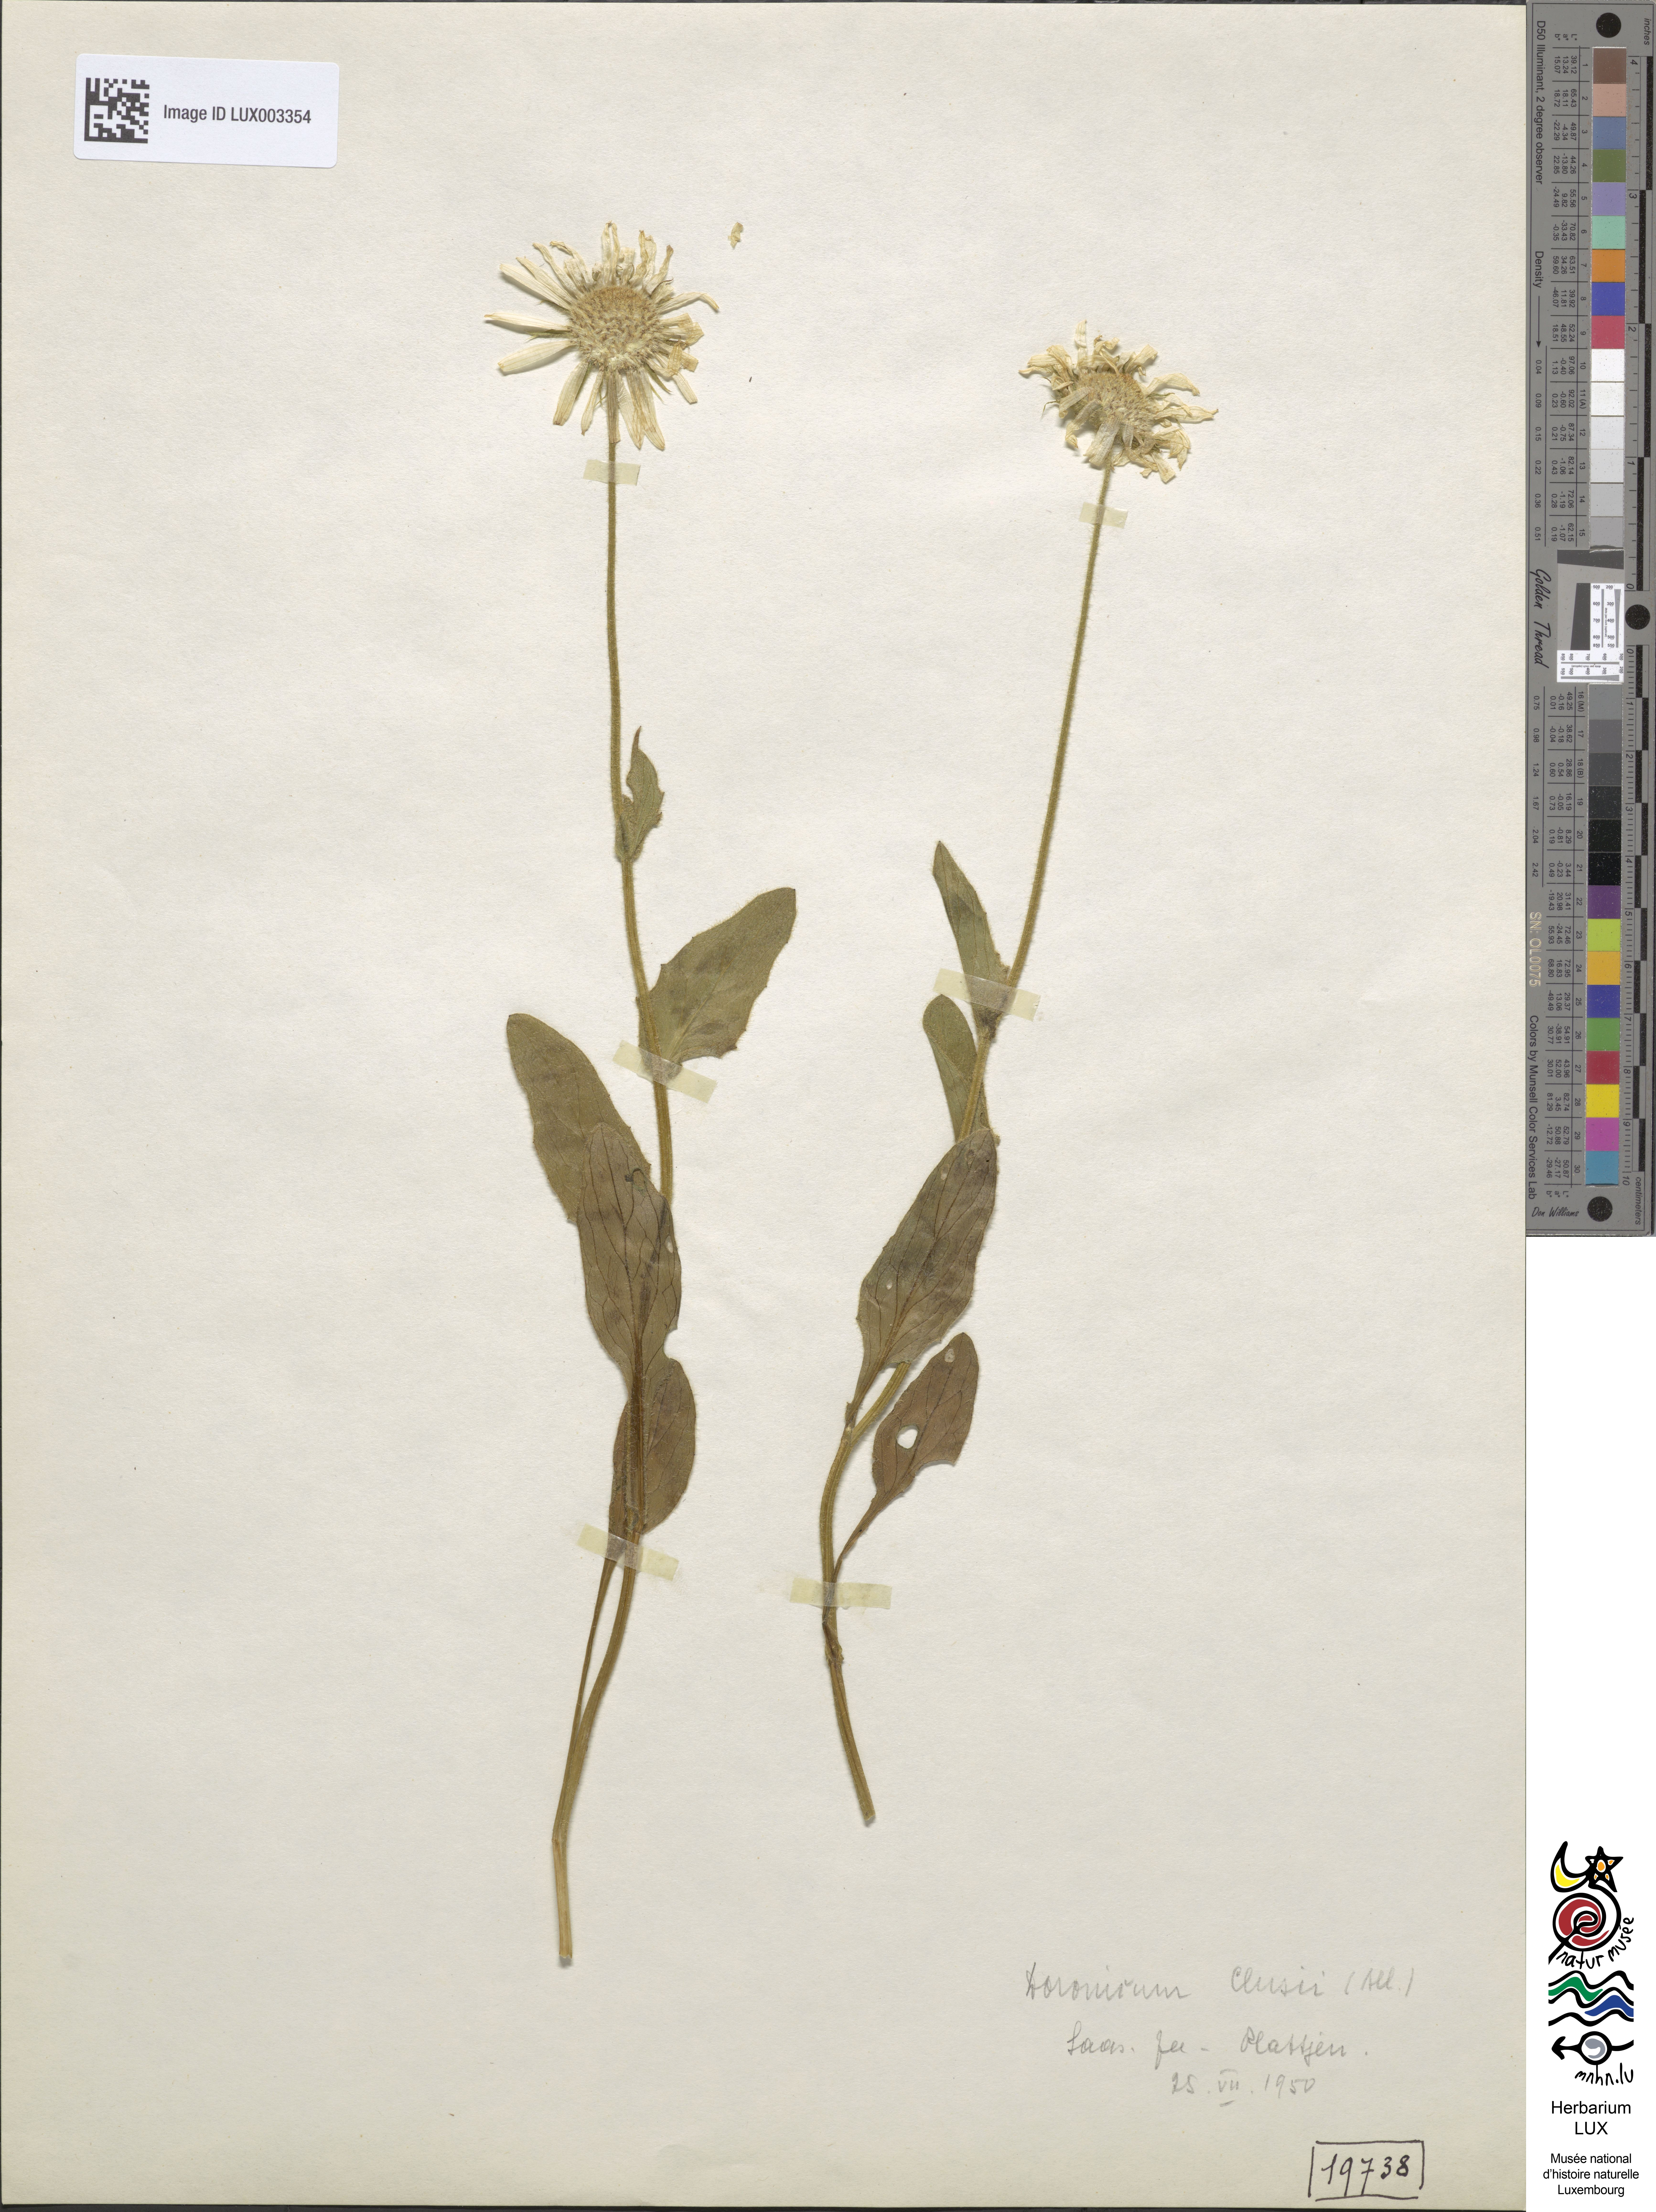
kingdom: Plantae
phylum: Tracheophyta
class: Magnoliopsida
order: Asterales
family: Asteraceae
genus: Doronicum
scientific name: Doronicum clusii
